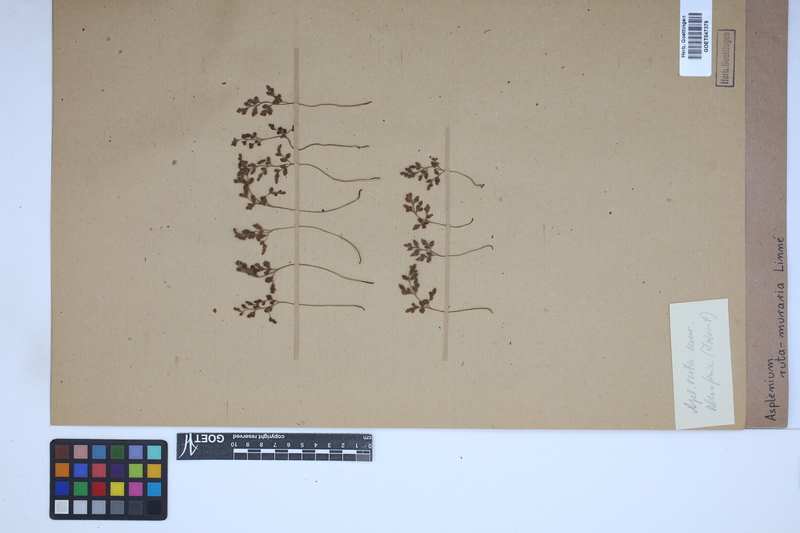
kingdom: Plantae
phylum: Tracheophyta
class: Polypodiopsida
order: Polypodiales
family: Aspleniaceae
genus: Asplenium
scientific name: Asplenium ruta-muraria
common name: Wall-rue
